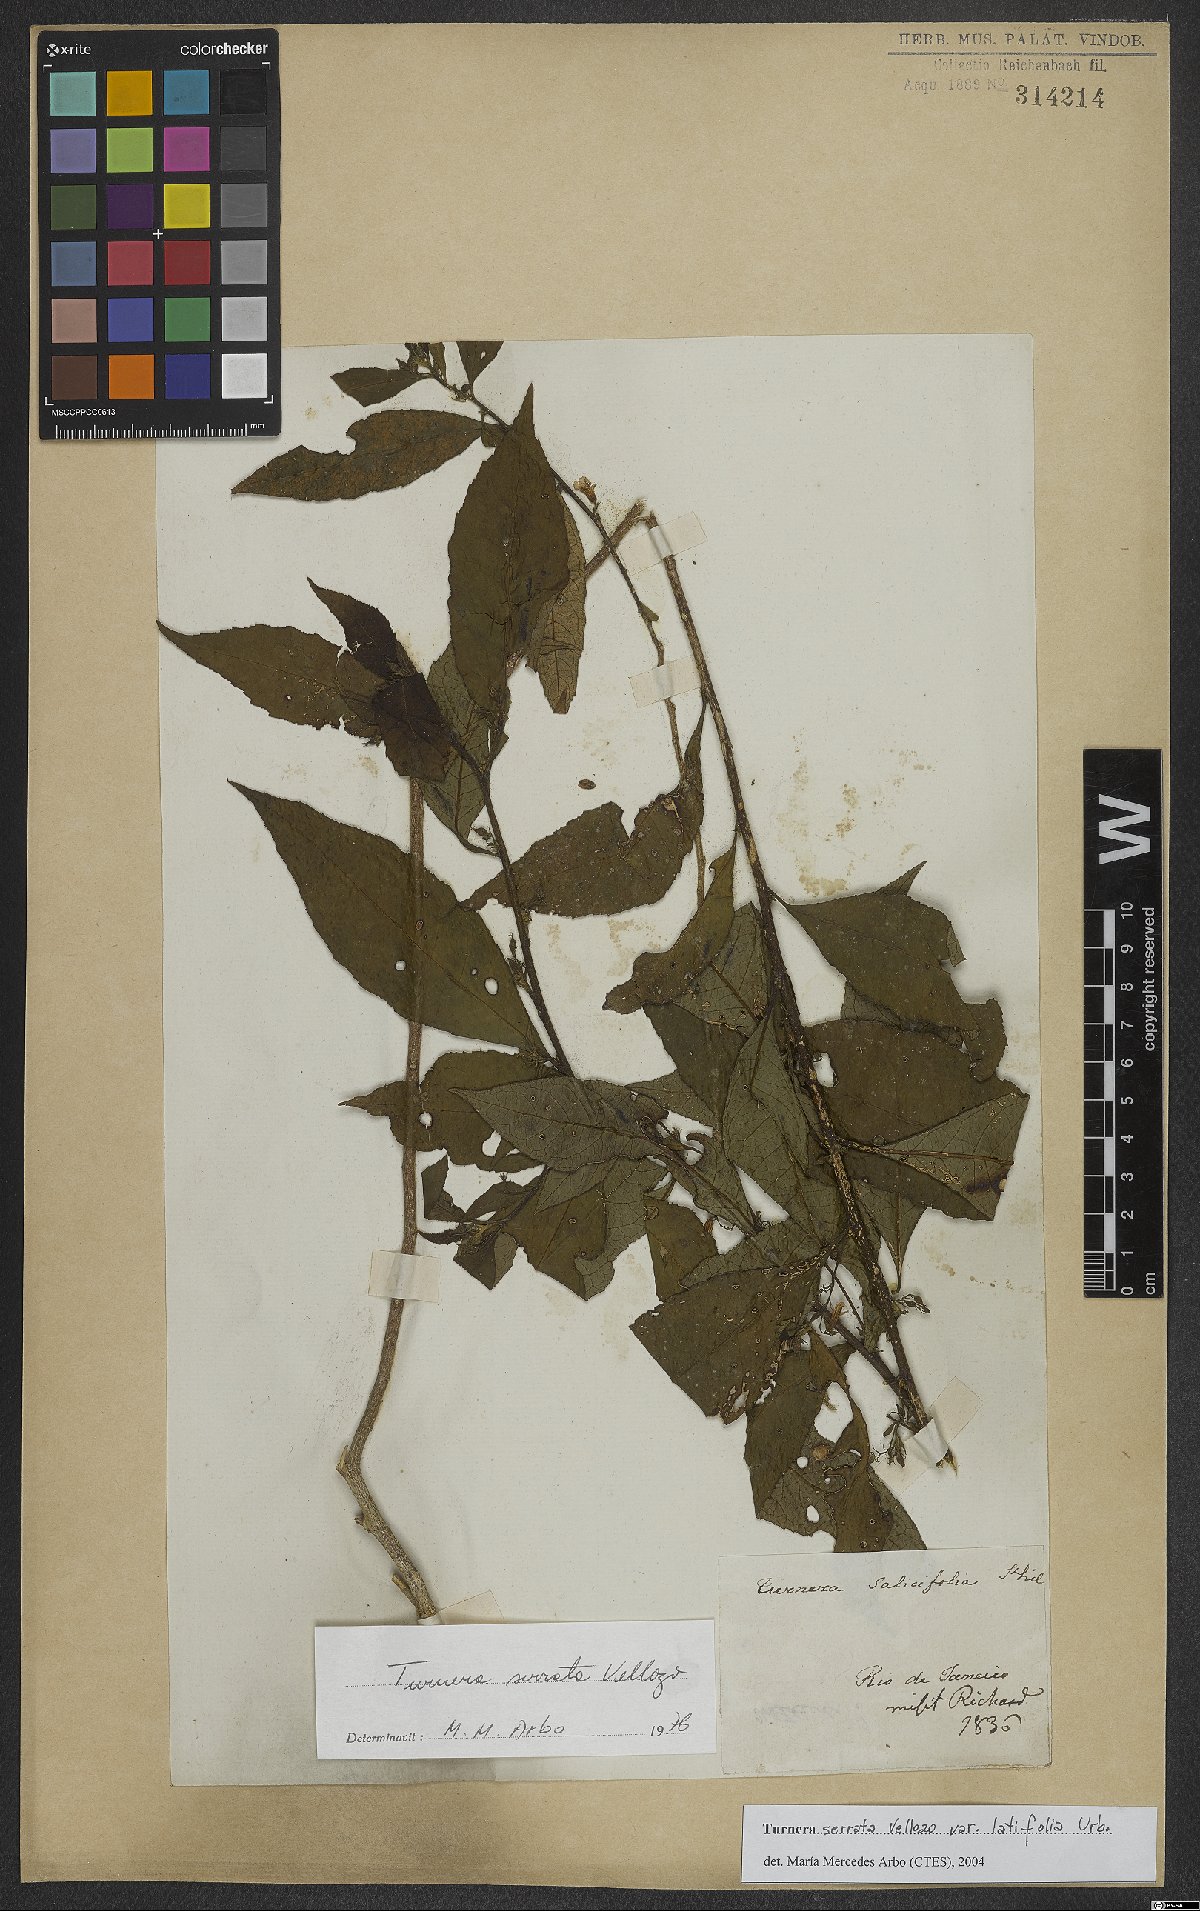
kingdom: Plantae
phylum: Tracheophyta
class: Magnoliopsida
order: Malpighiales
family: Turneraceae
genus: Turnera
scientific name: Turnera serrata
